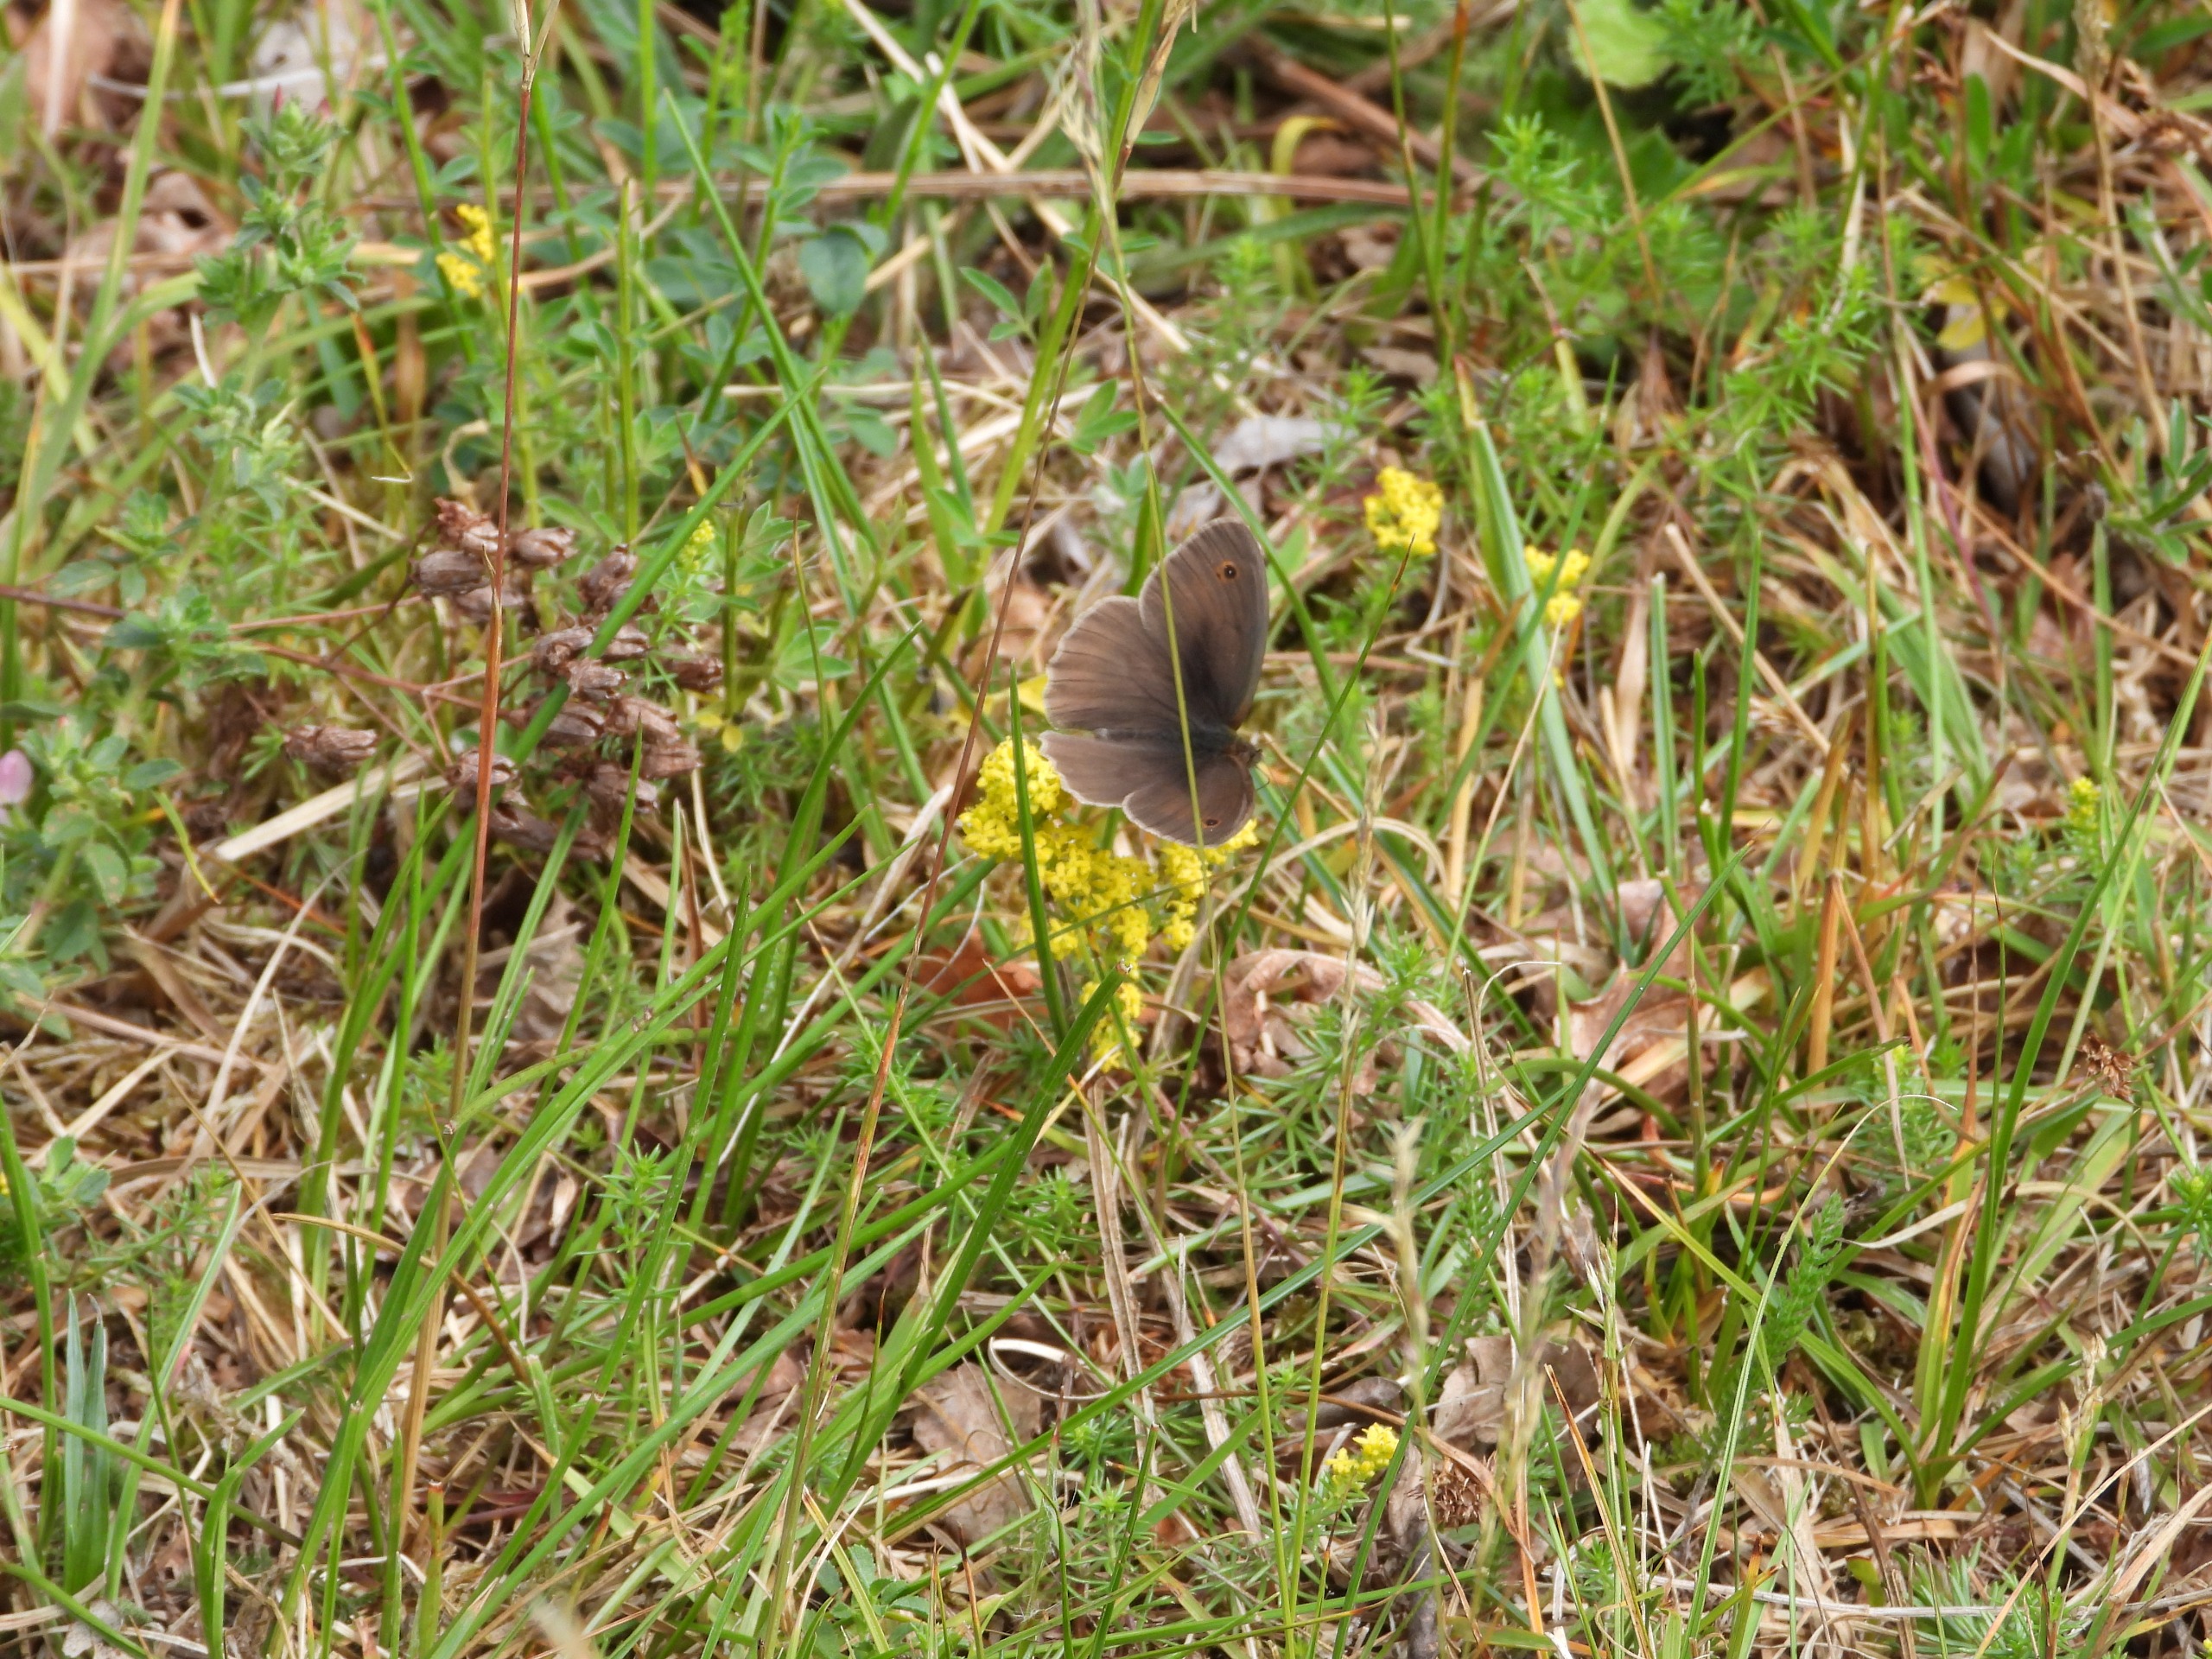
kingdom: Animalia
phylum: Arthropoda
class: Insecta
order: Lepidoptera
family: Nymphalidae
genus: Maniola
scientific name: Maniola jurtina
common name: Græsrandøje
